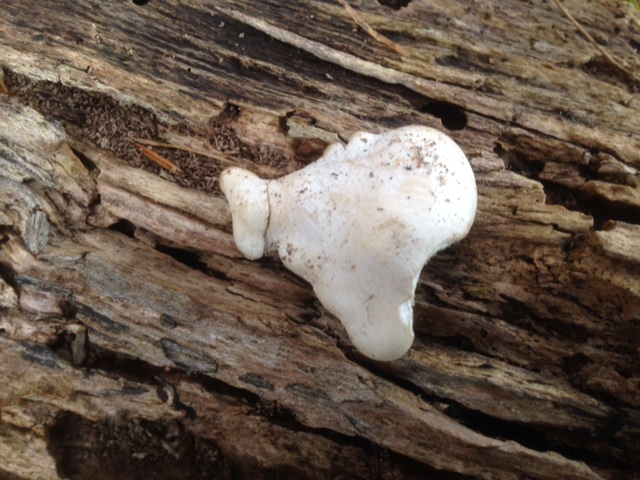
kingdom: Fungi
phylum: Basidiomycota
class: Agaricomycetes
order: Agaricales
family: Lyophyllaceae
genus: Ossicaulis
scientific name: Ossicaulis lignatilis
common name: hvidlig vedtragthat
